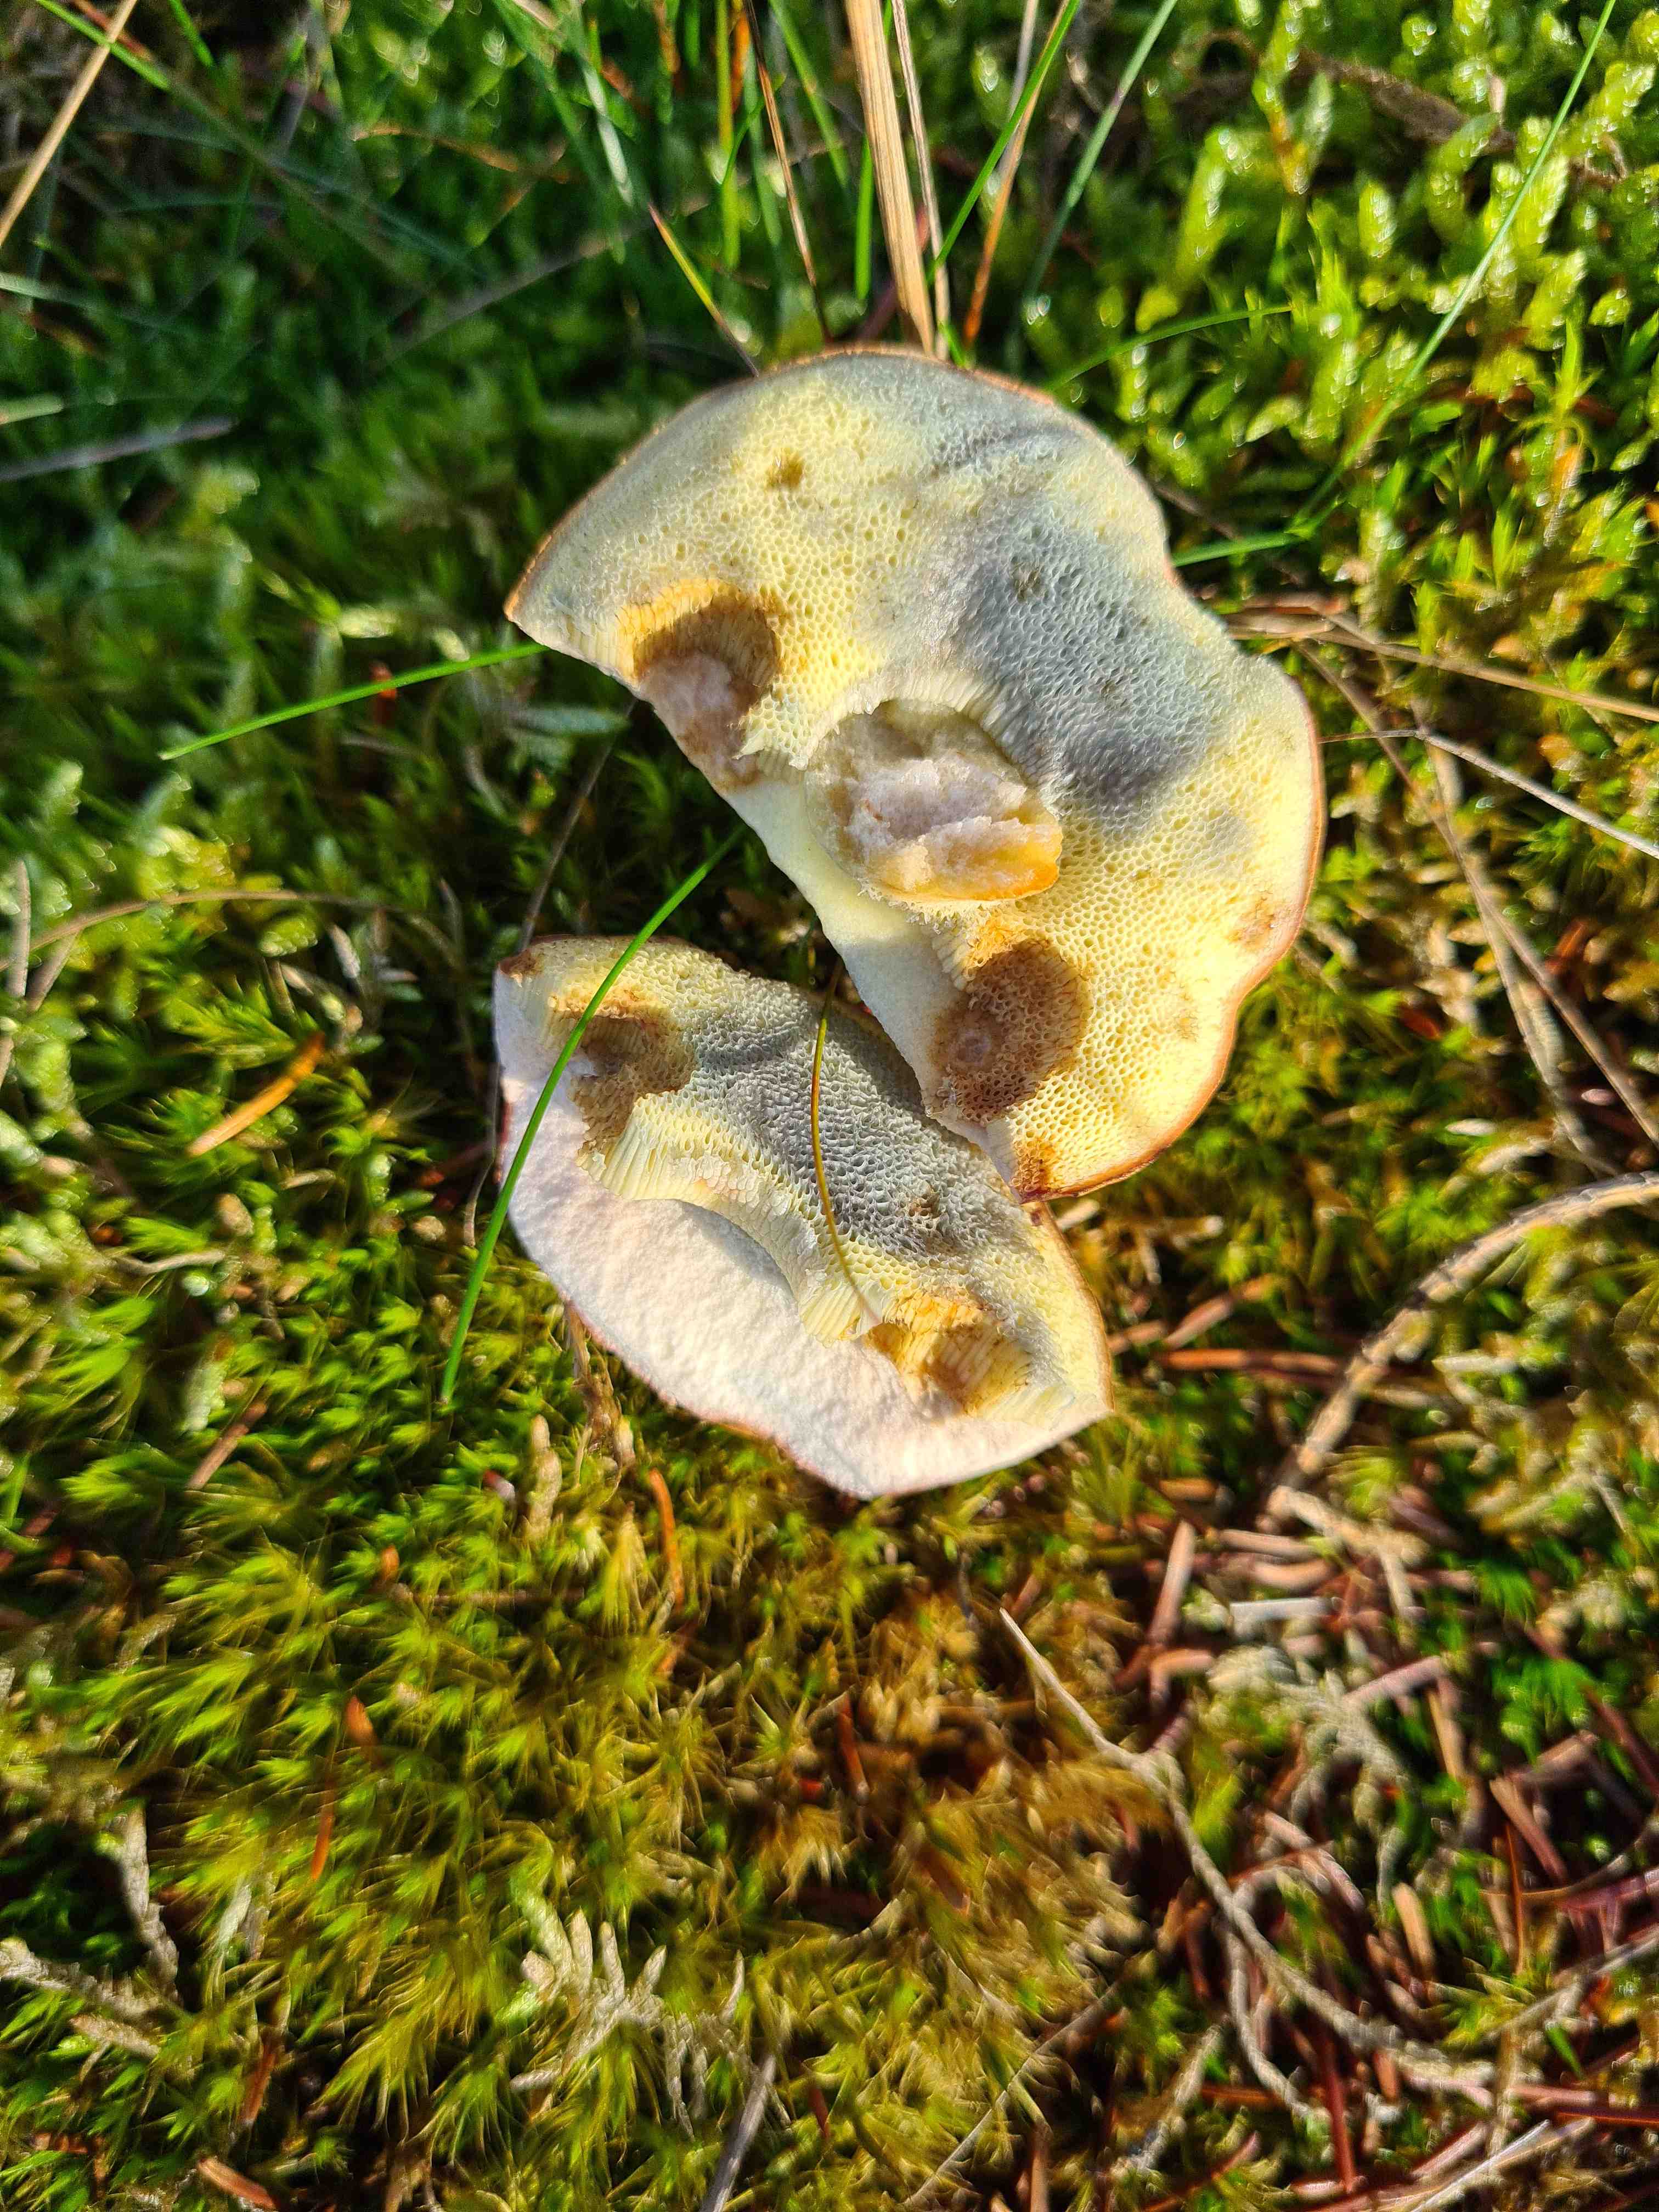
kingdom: Fungi
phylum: Basidiomycota
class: Agaricomycetes
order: Boletales
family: Boletaceae
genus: Imleria
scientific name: Imleria badia
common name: brunstokket rørhat
